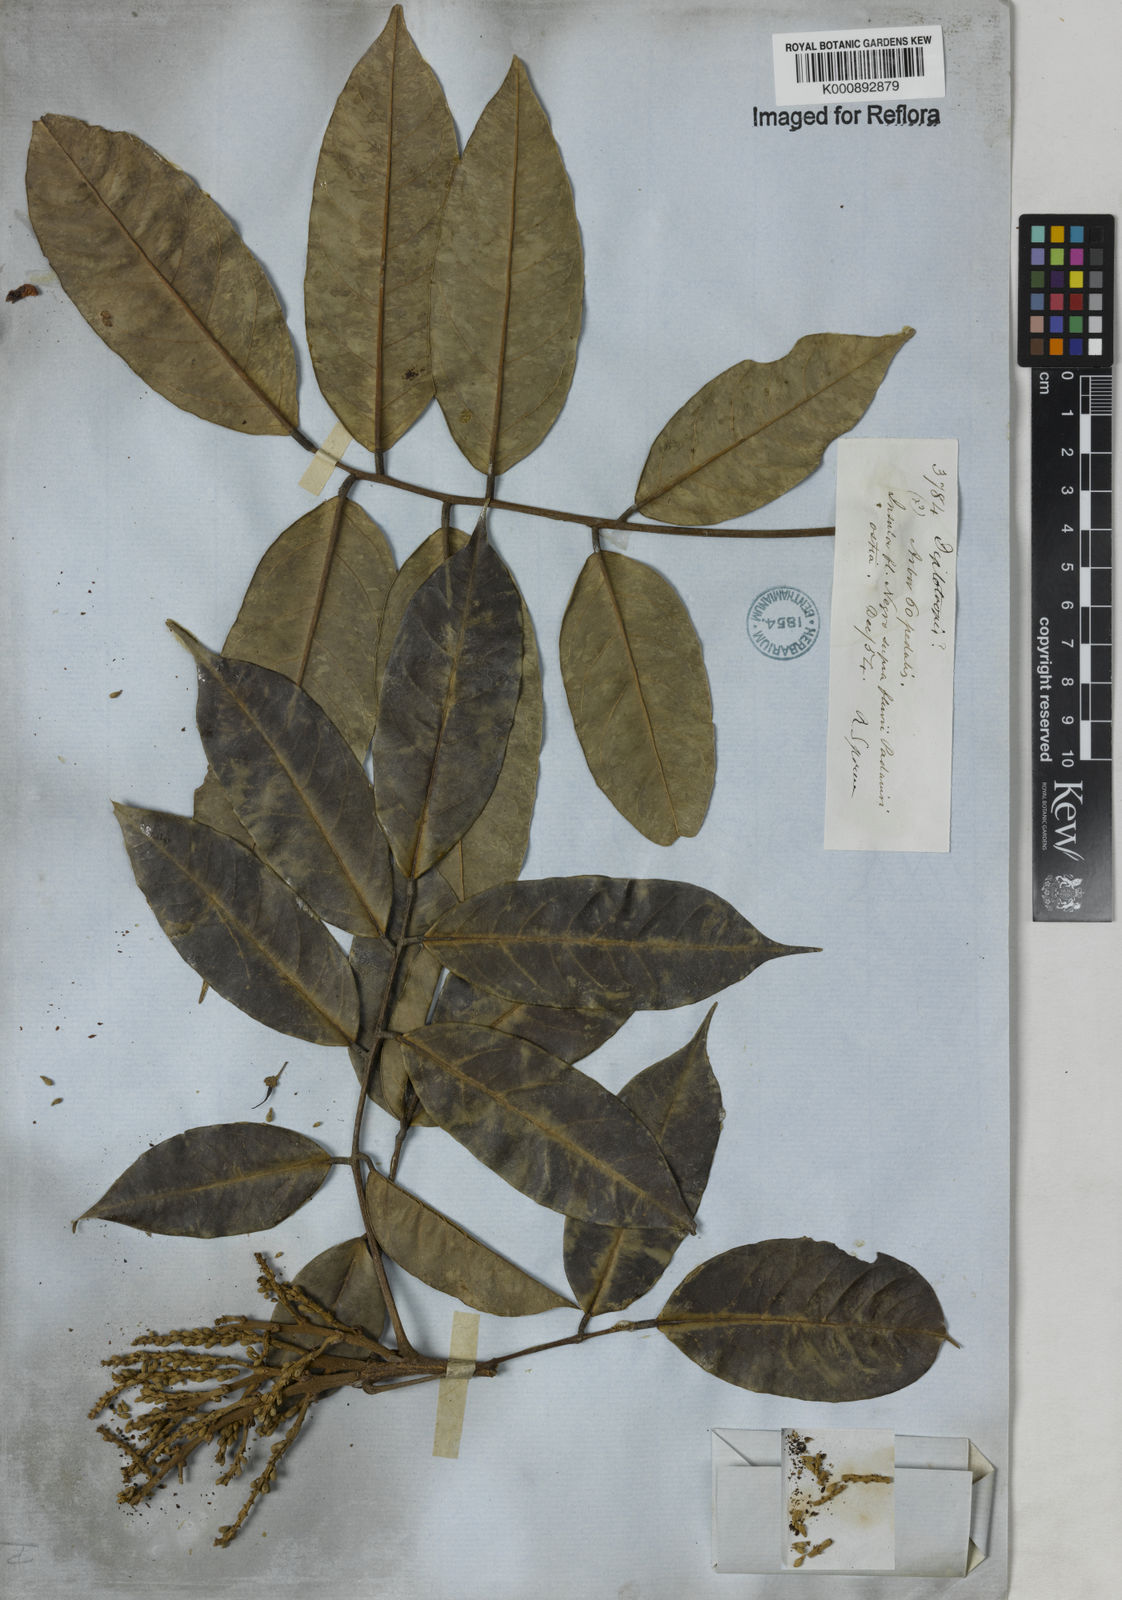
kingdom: Plantae
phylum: Tracheophyta
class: Magnoliopsida
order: Fabales
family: Fabaceae
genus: Clathrotropis
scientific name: Clathrotropis nitida
